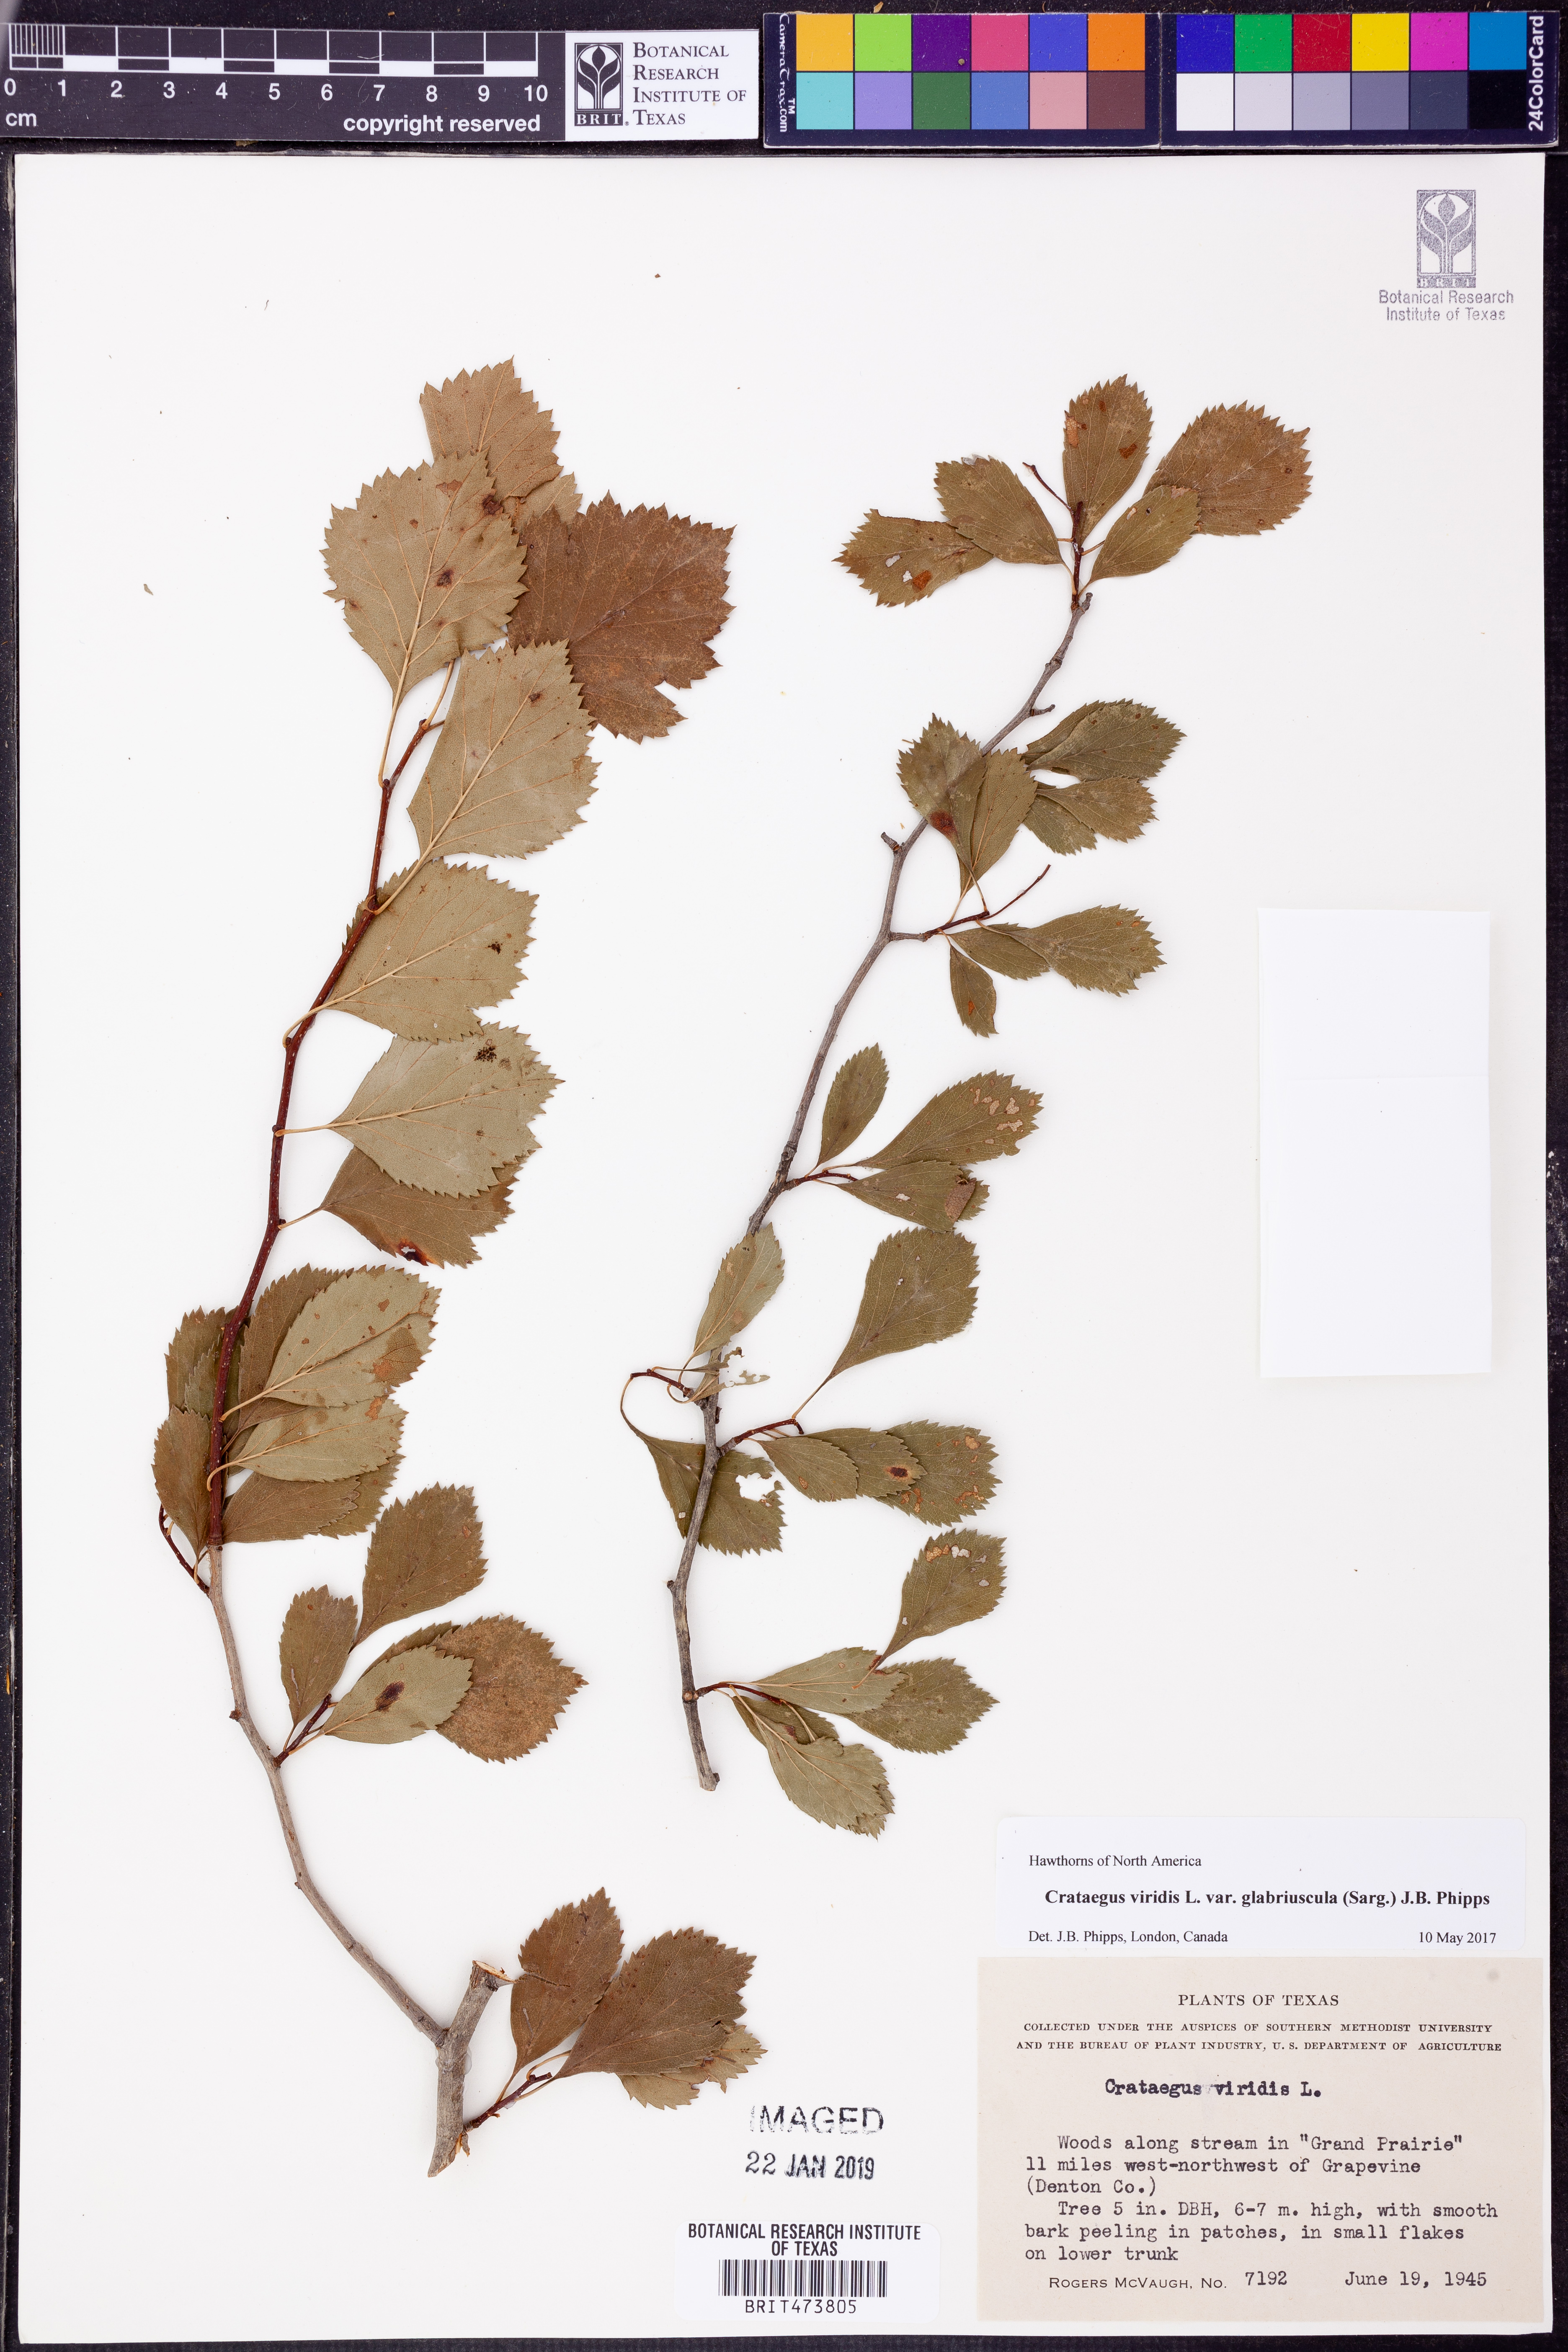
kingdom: Plantae
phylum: Tracheophyta
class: Magnoliopsida
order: Rosales
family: Rosaceae
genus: Crataegus
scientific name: Crataegus viridis
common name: Southernthorn
